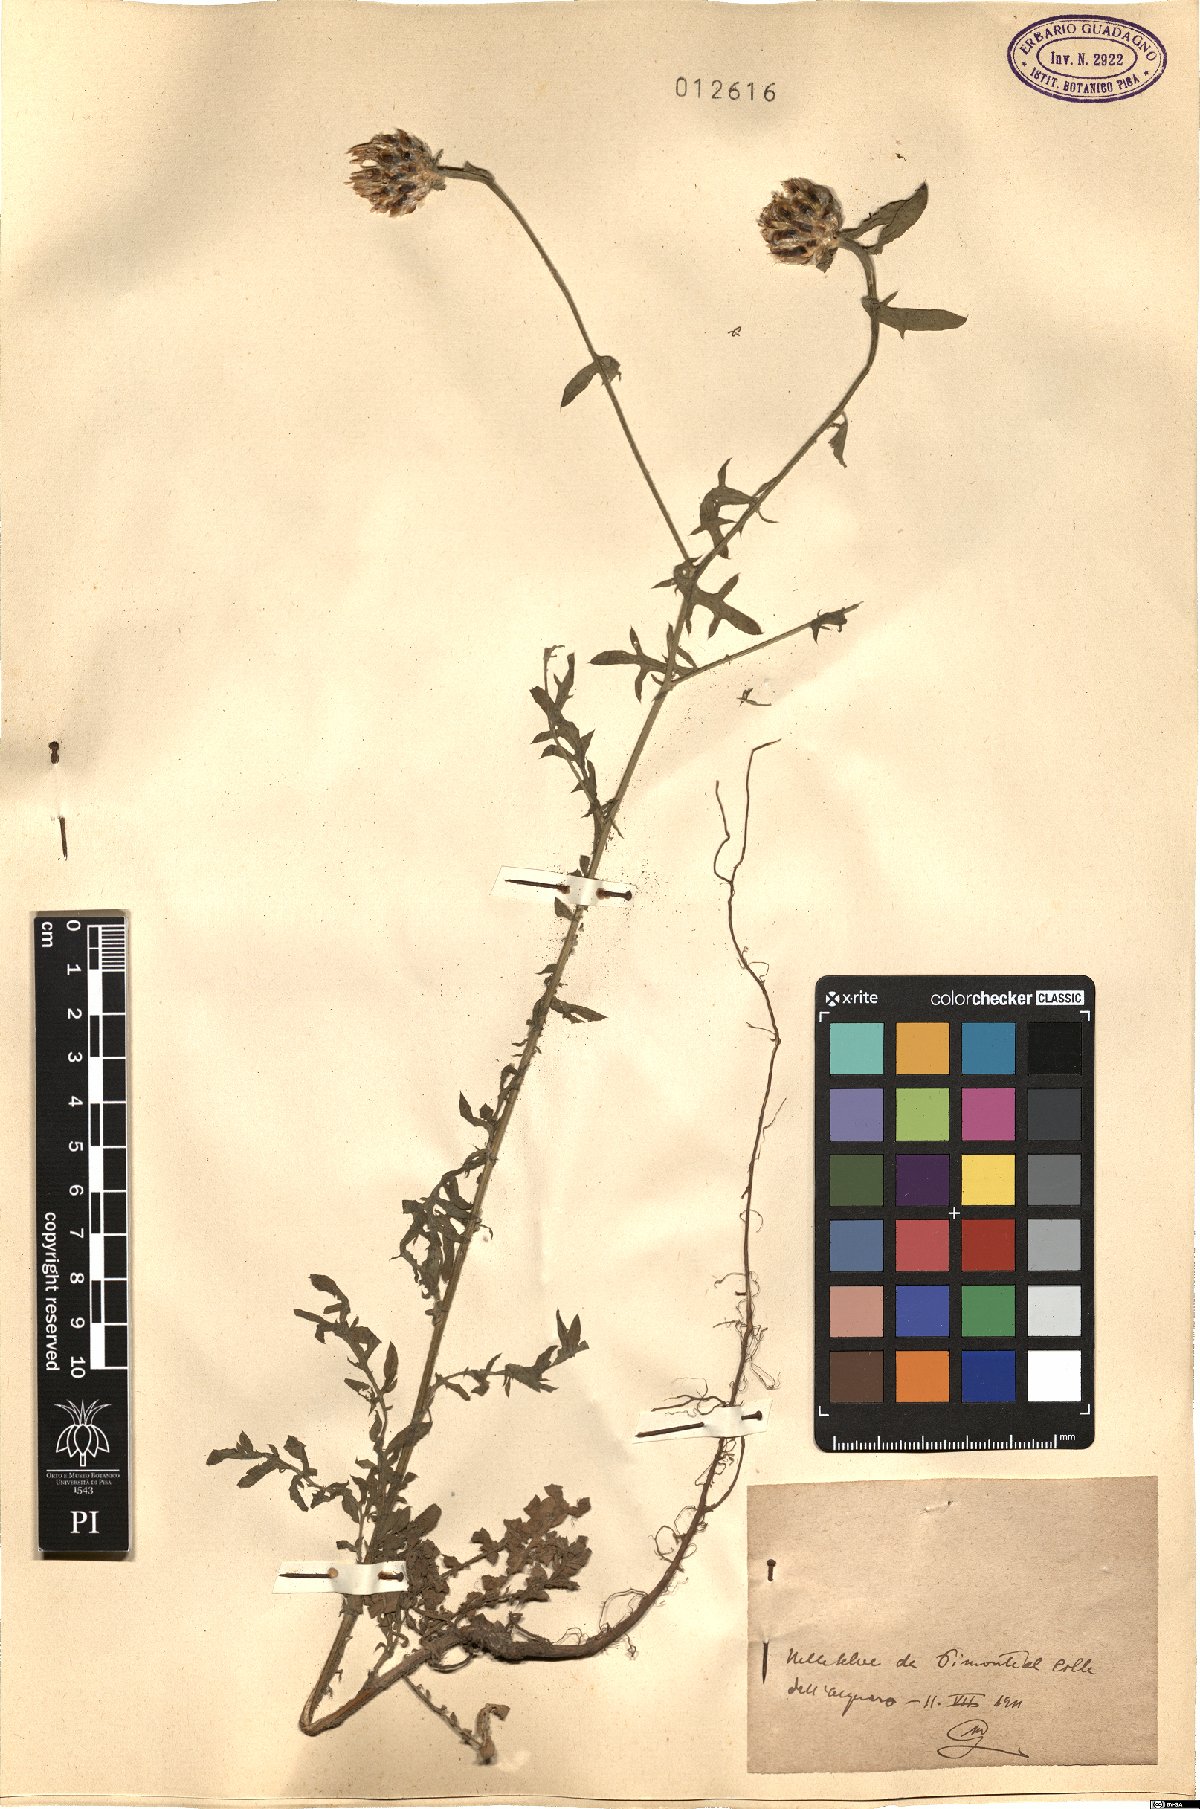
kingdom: Plantae
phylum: Tracheophyta
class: Magnoliopsida
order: Asterales
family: Asteraceae
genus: Centaurea
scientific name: Centaurea
